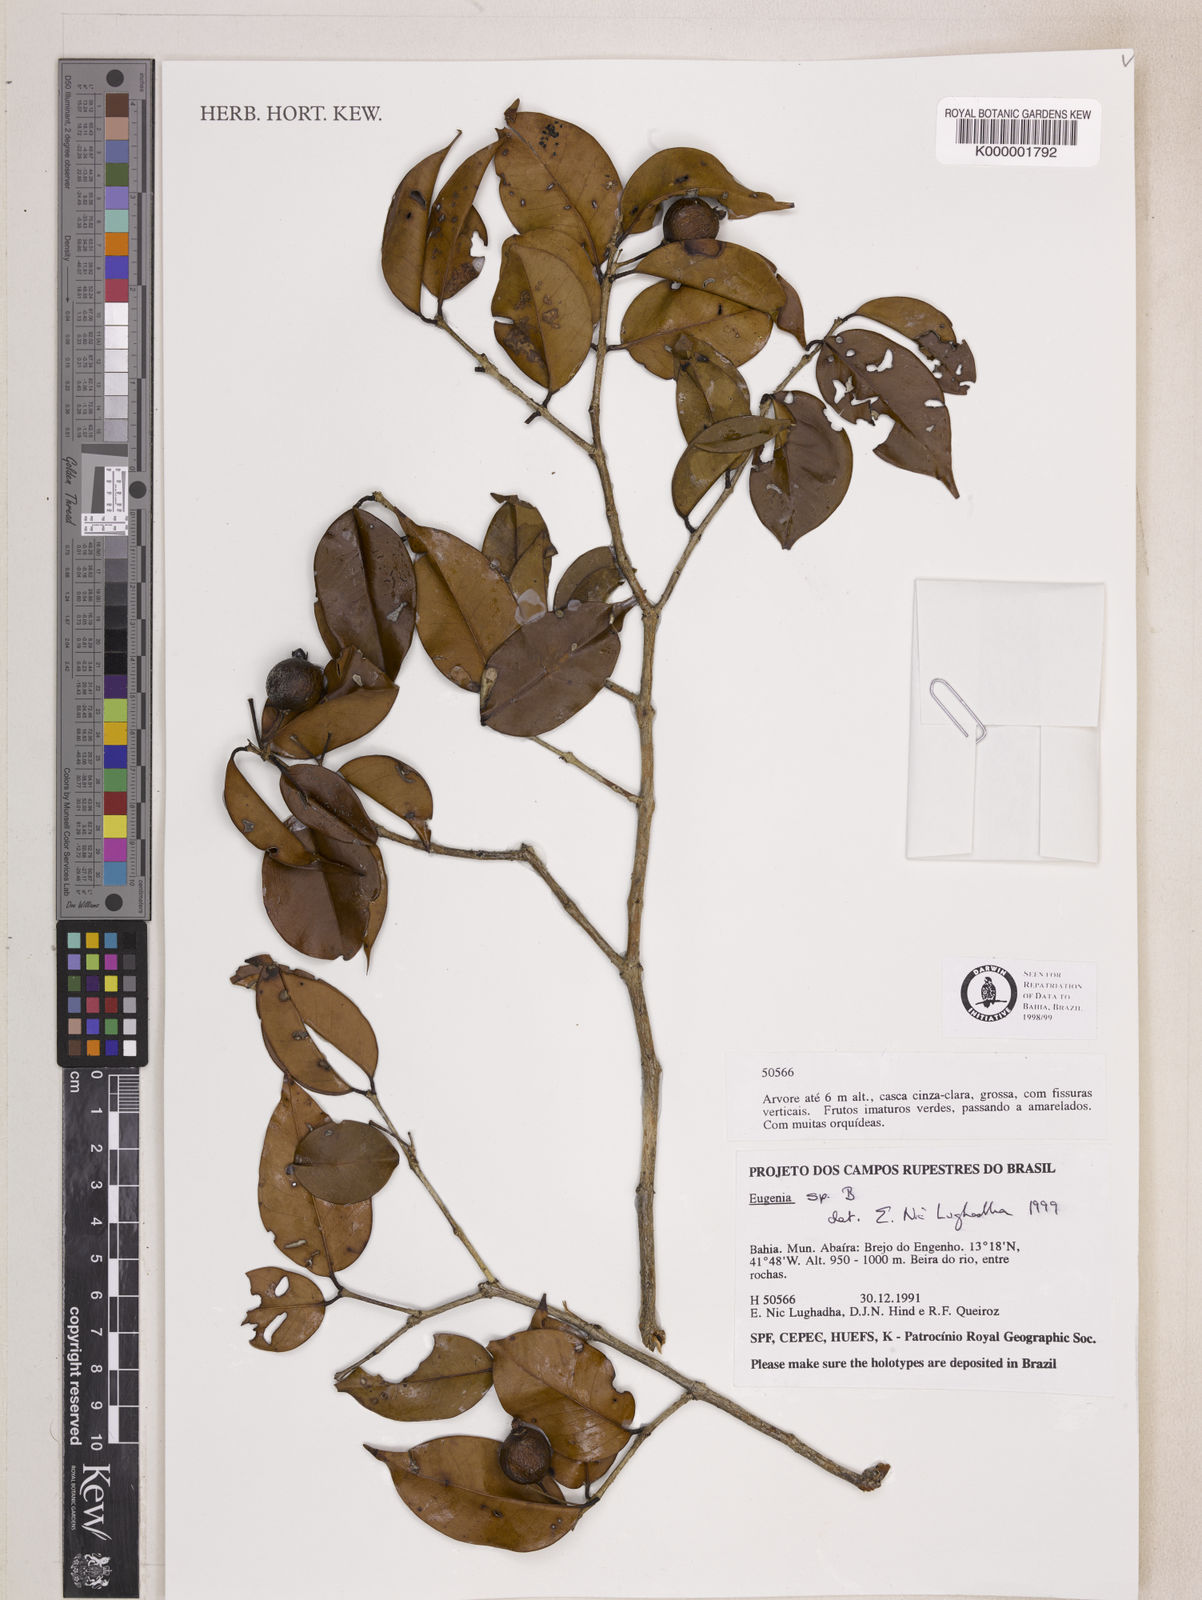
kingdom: Plantae
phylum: Tracheophyta
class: Magnoliopsida
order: Myrtales
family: Myrtaceae
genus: Eugenia
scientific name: Eugenia
